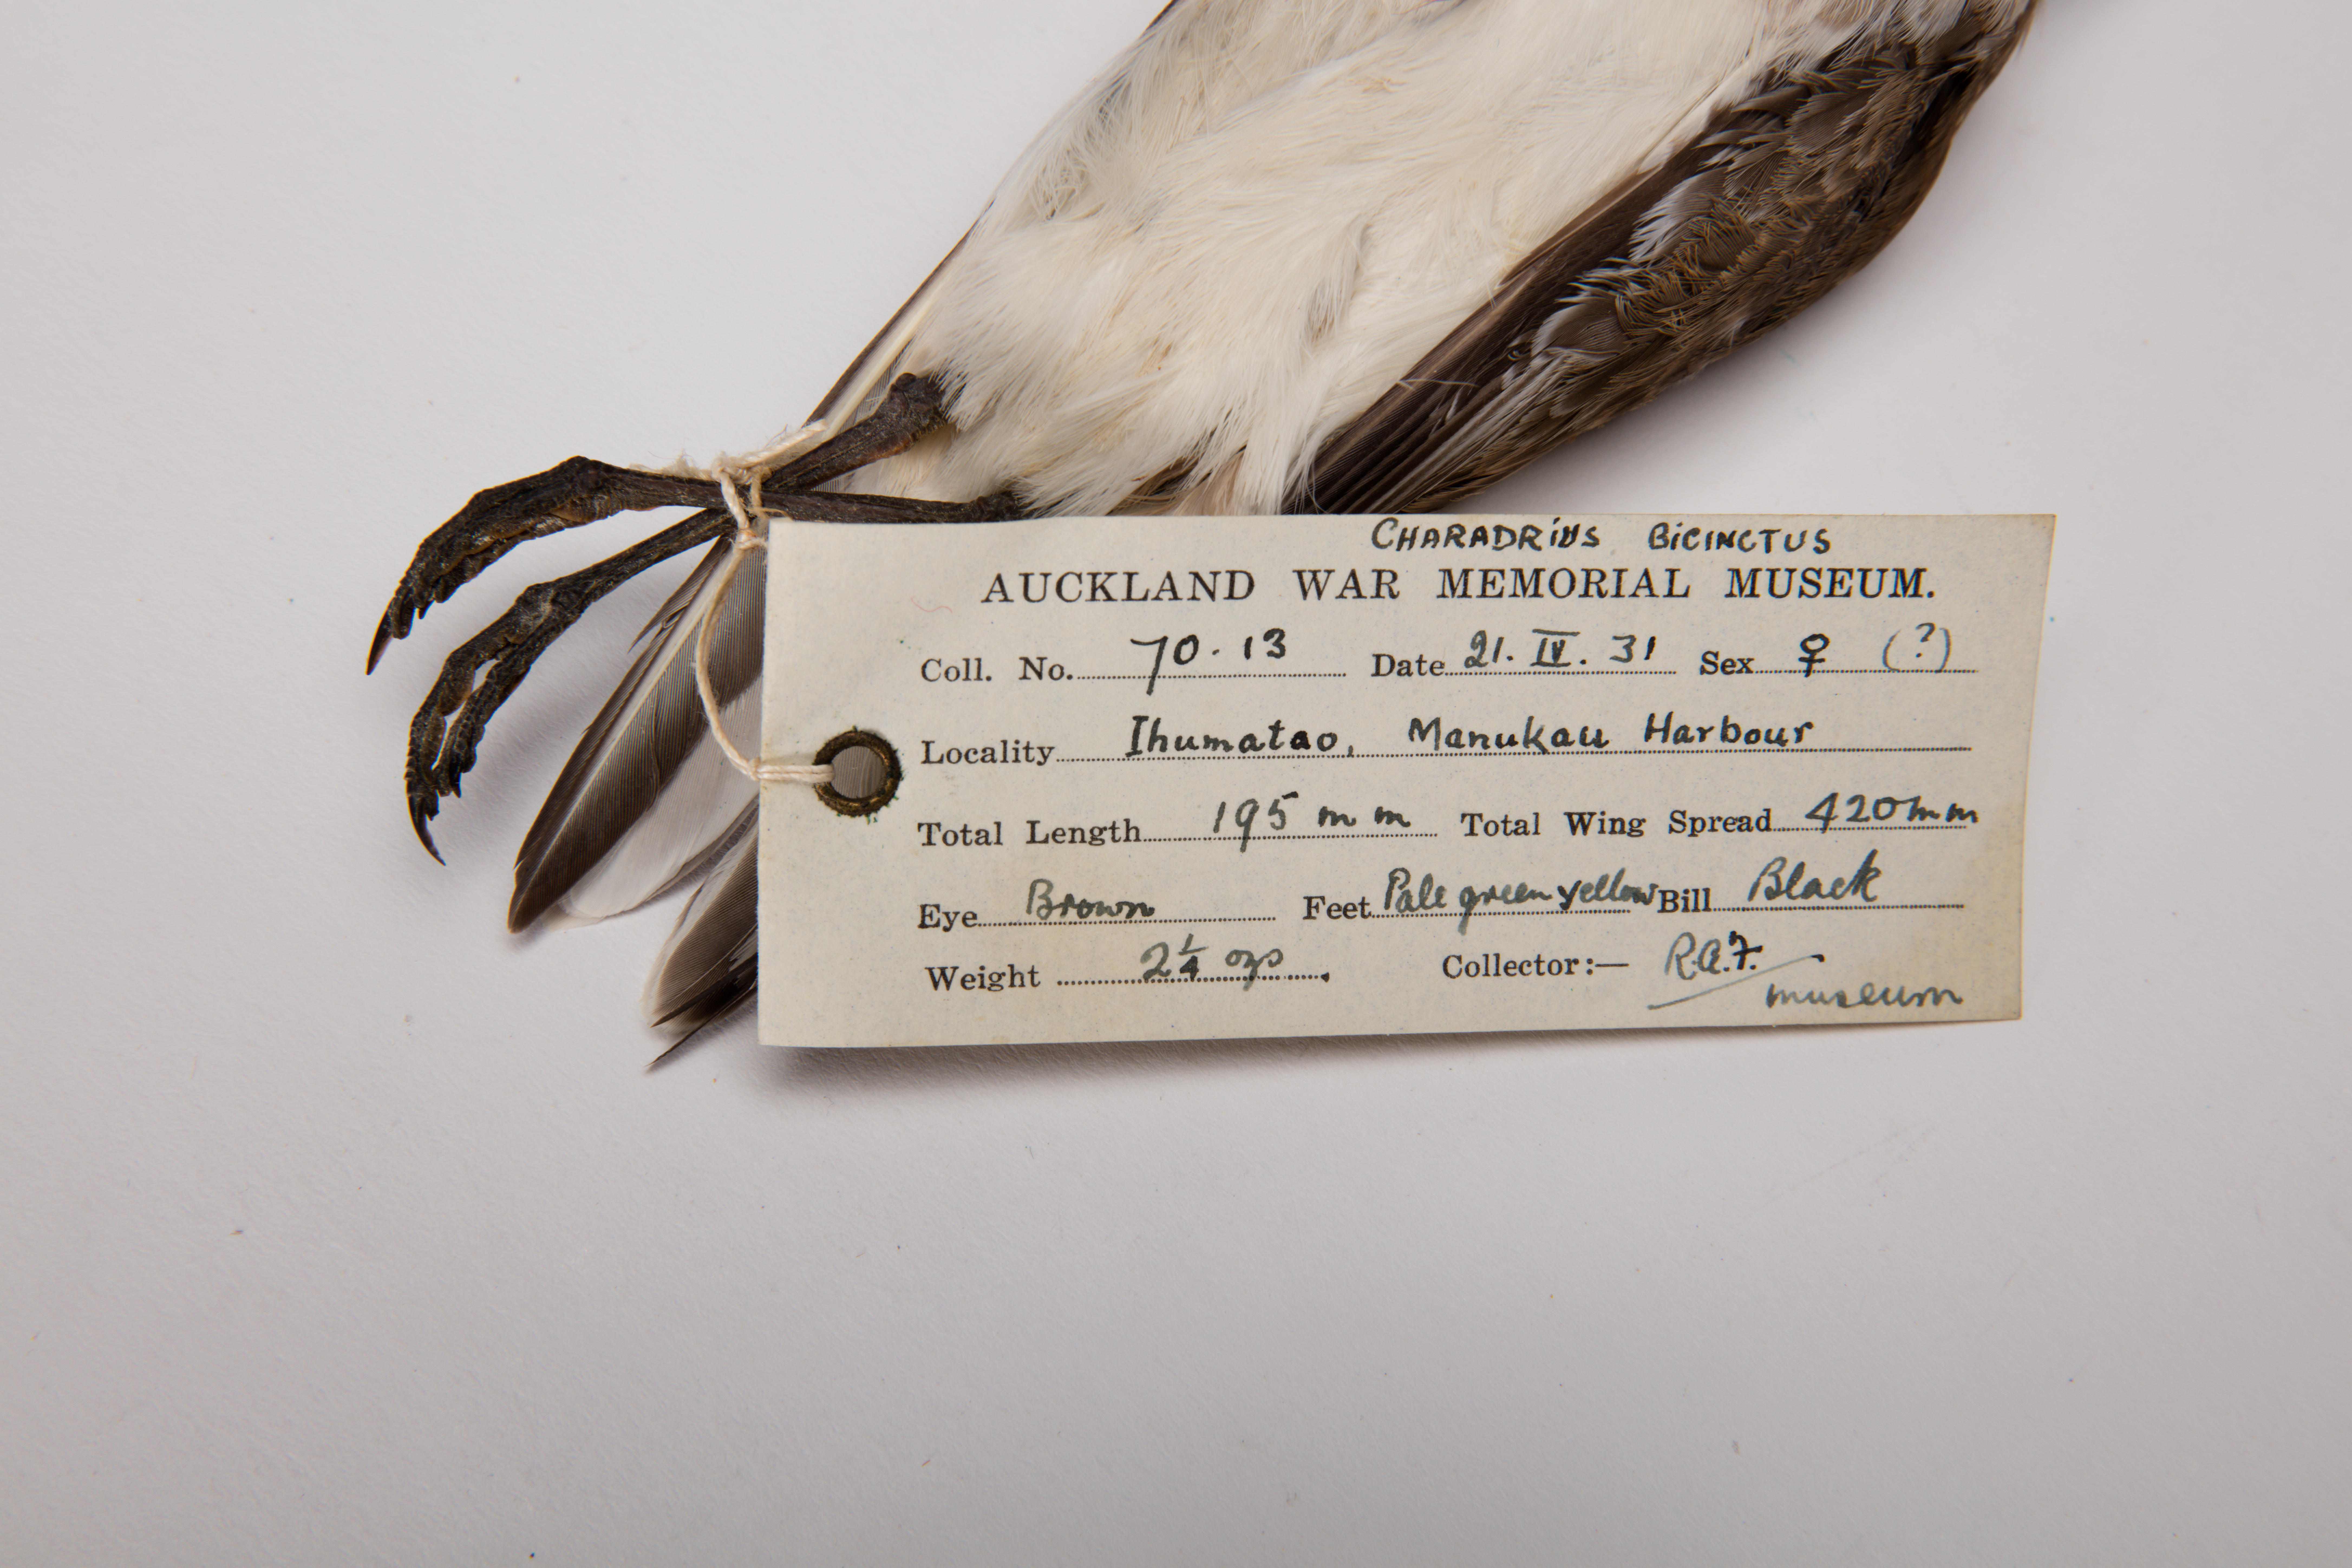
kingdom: Animalia
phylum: Chordata
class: Aves
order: Charadriiformes
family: Charadriidae
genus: Charadrius
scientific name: Charadrius bicinctus
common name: Double-banded plover
